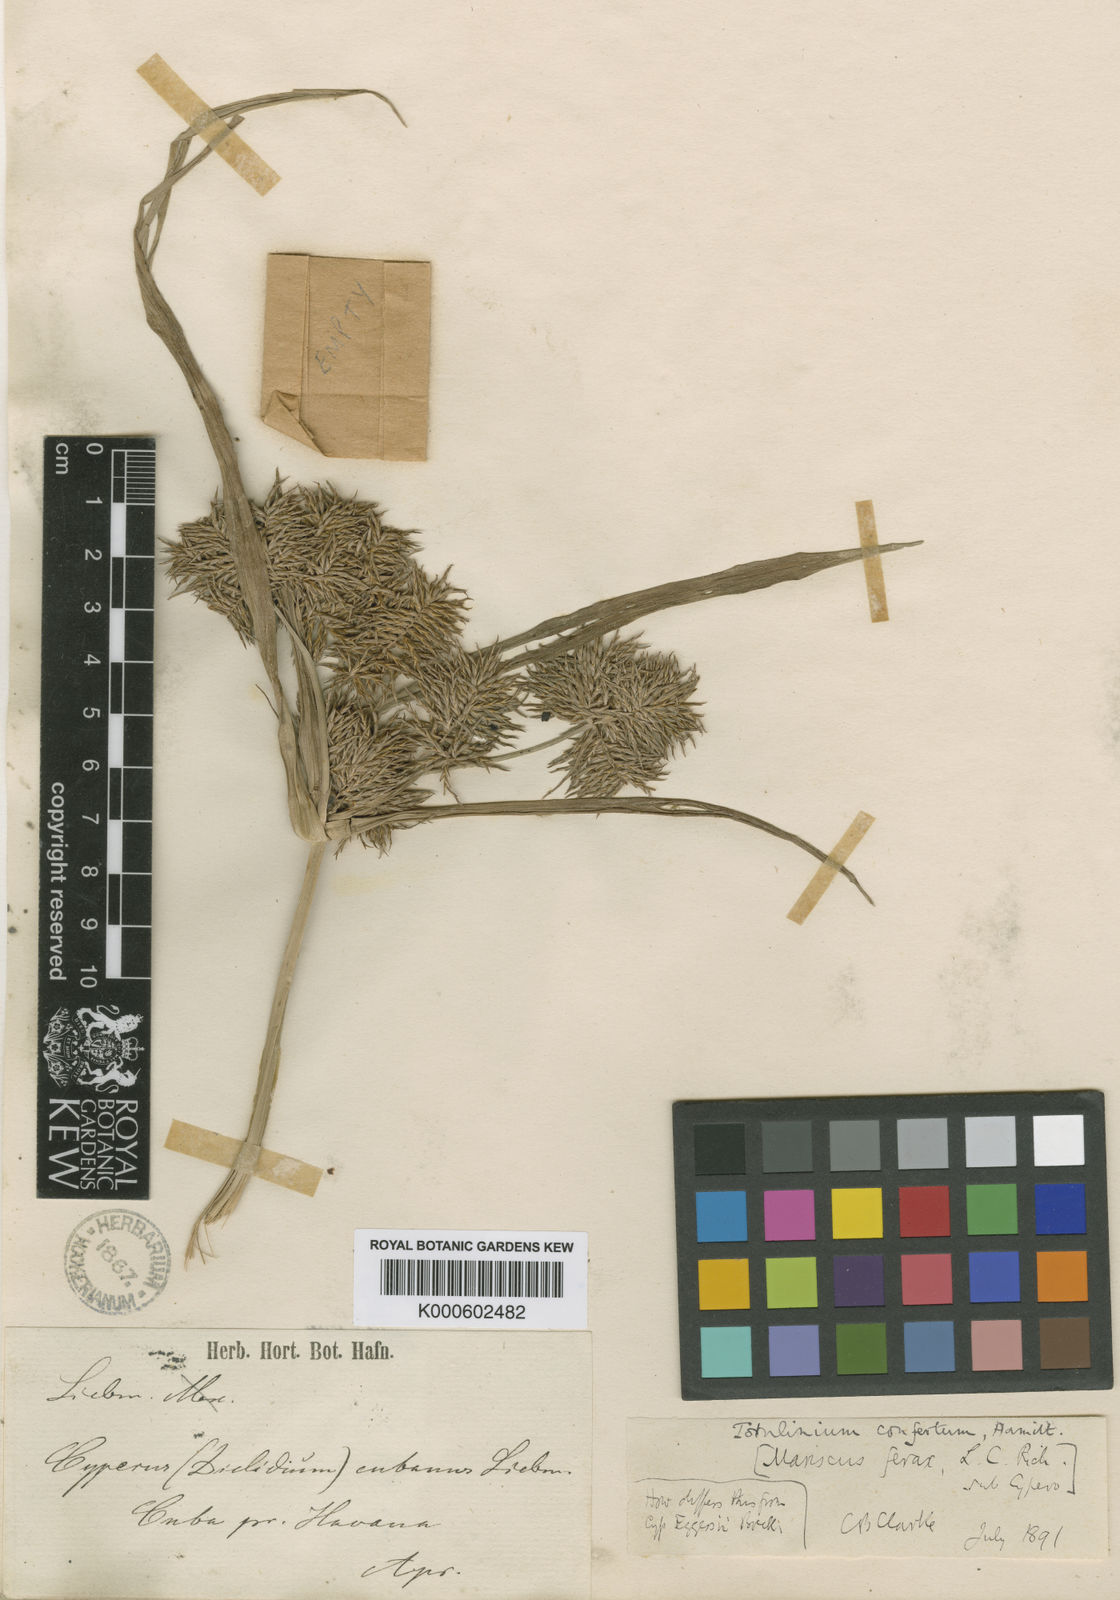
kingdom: Plantae
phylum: Tracheophyta
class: Liliopsida
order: Poales
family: Cyperaceae
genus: Cyperus
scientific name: Cyperus odoratus
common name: Fragrant flatsedge
